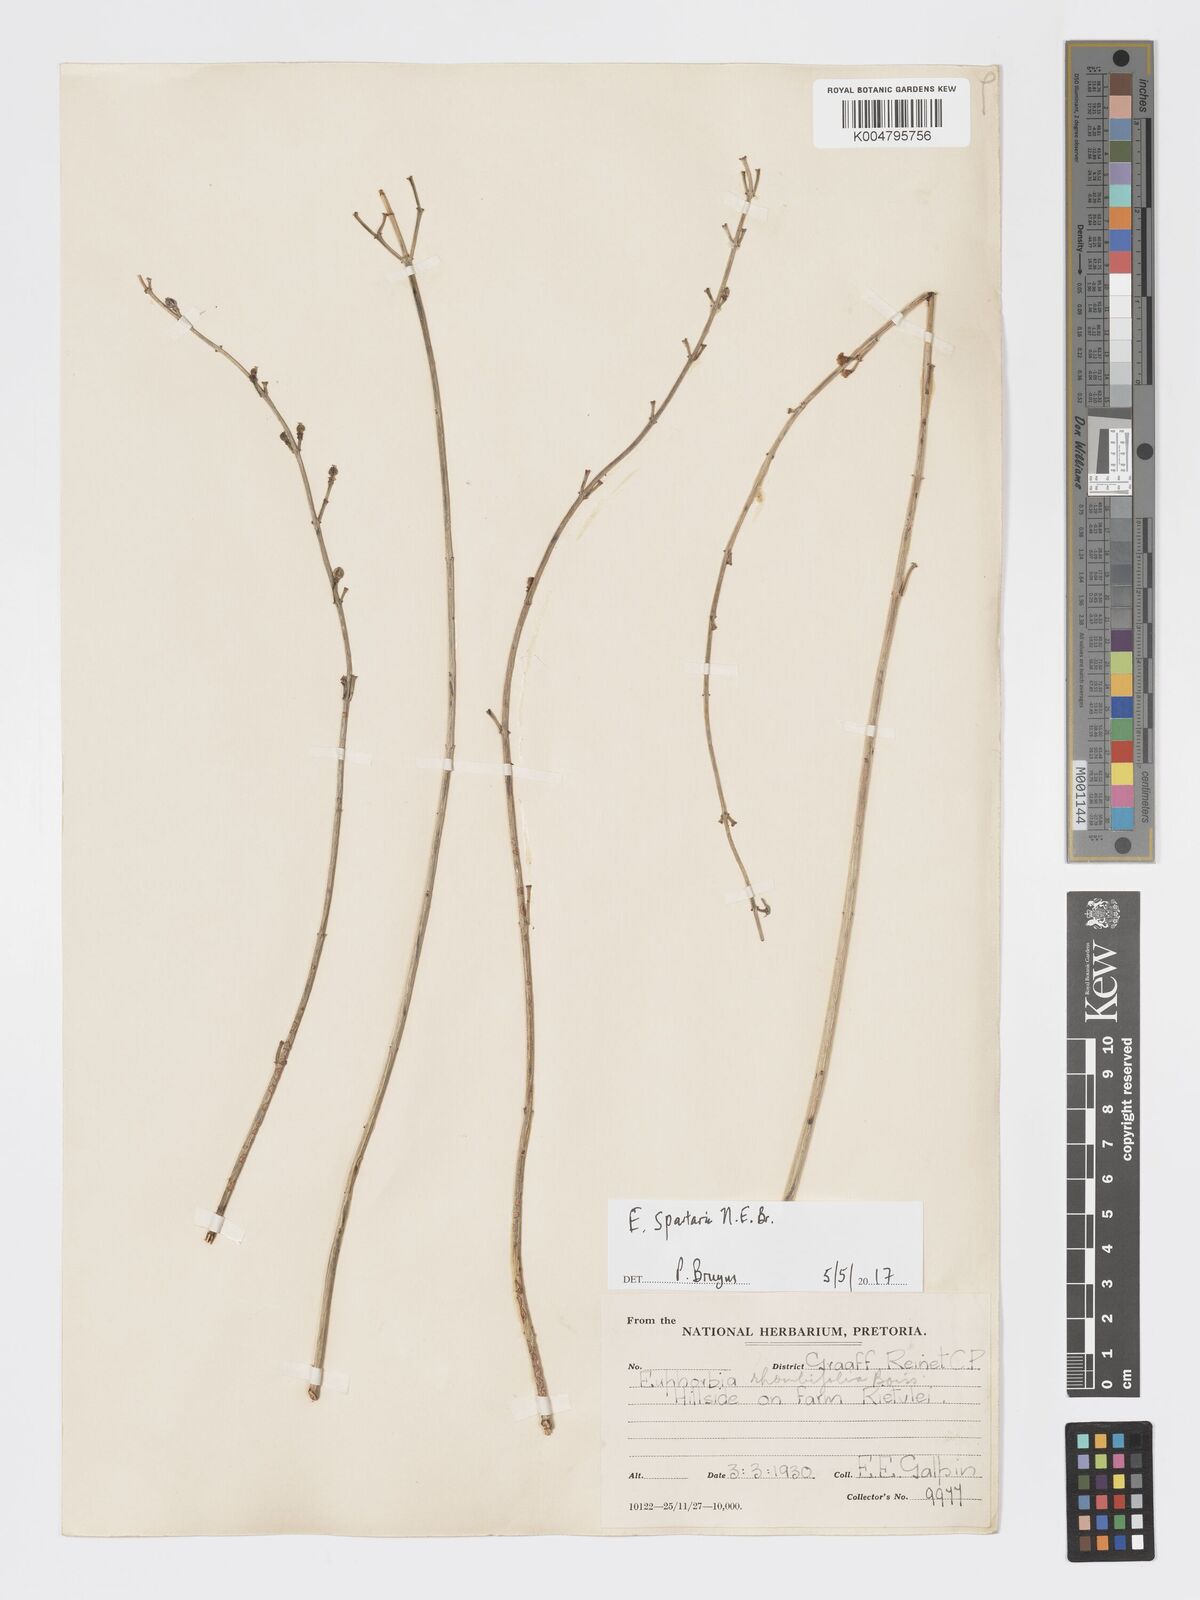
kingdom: Plantae
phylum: Tracheophyta
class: Magnoliopsida
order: Malpighiales
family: Euphorbiaceae
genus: Euphorbia
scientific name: Euphorbia spartaria
